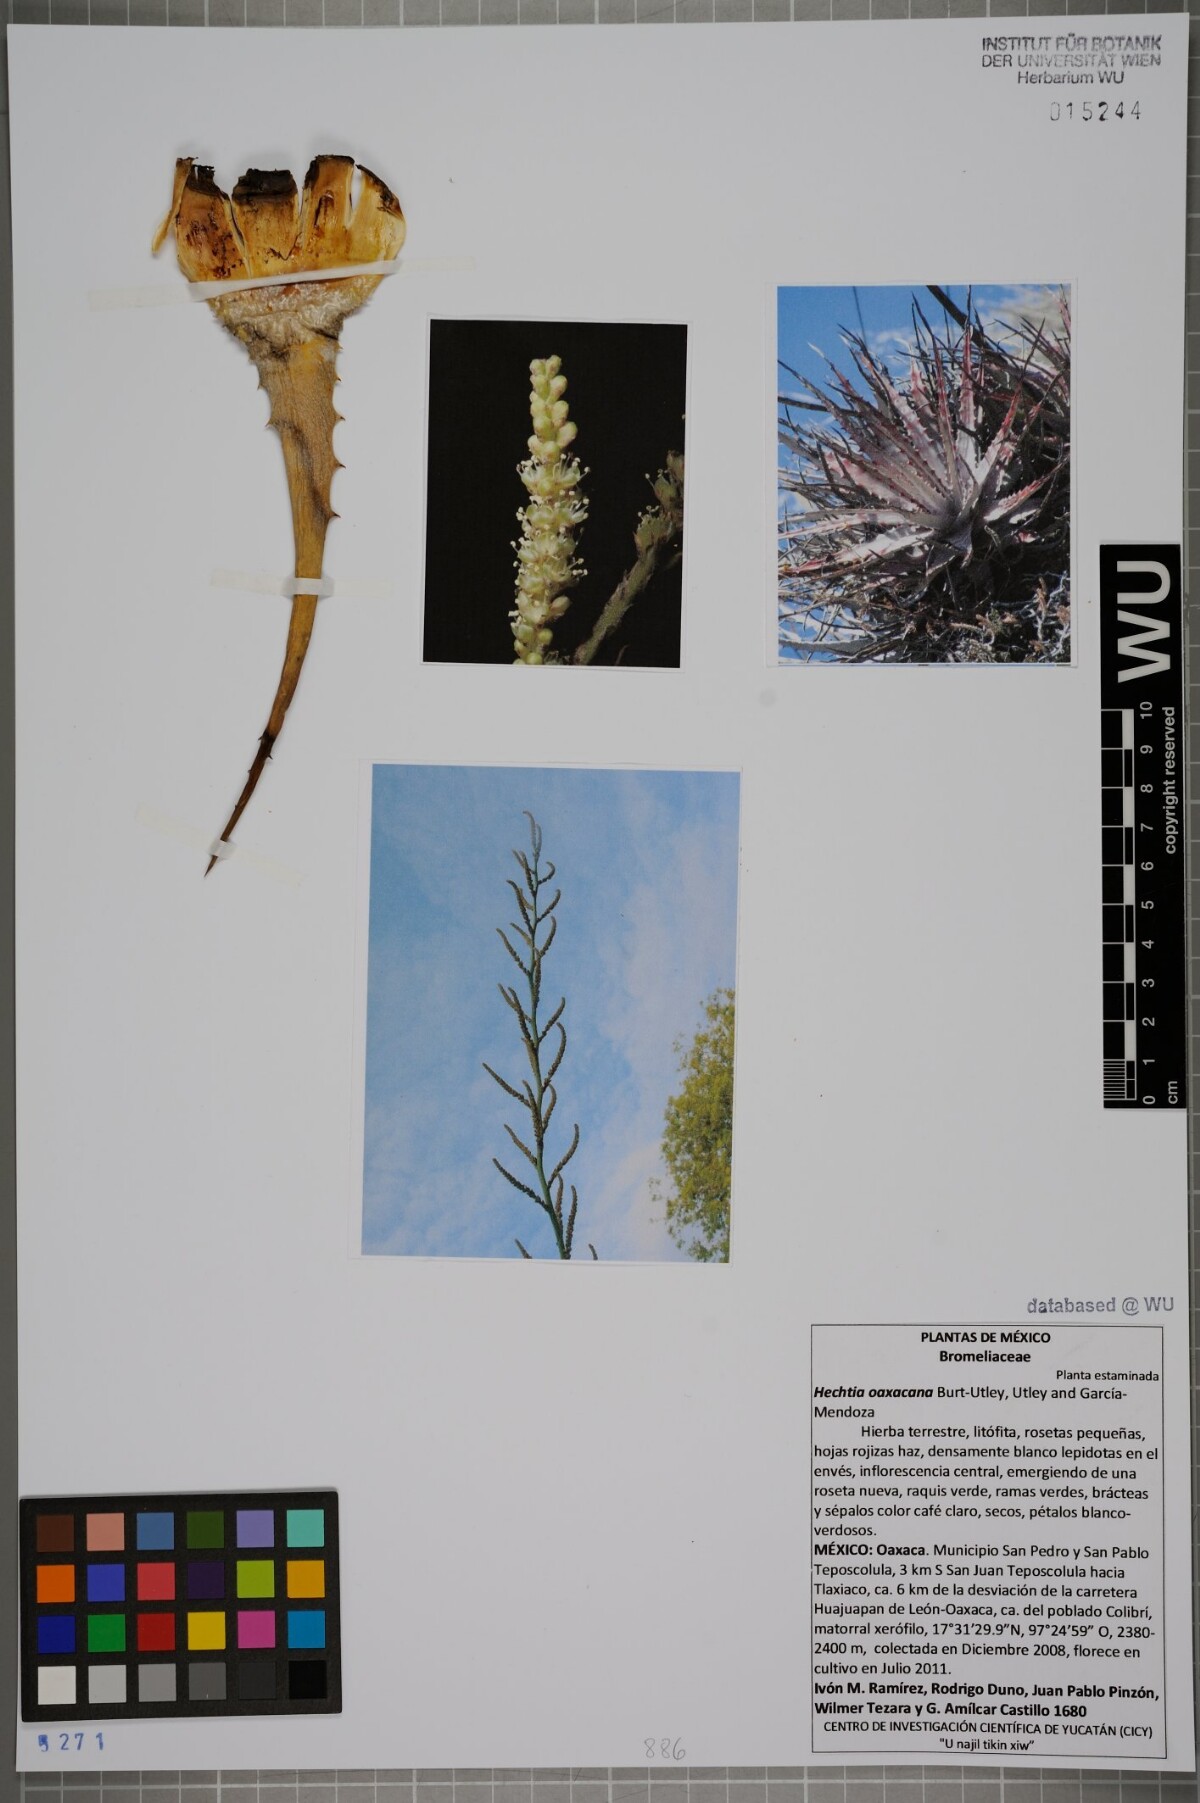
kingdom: Plantae
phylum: Tracheophyta
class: Liliopsida
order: Poales
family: Bromeliaceae
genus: Hechtia
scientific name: Hechtia oaxacana
